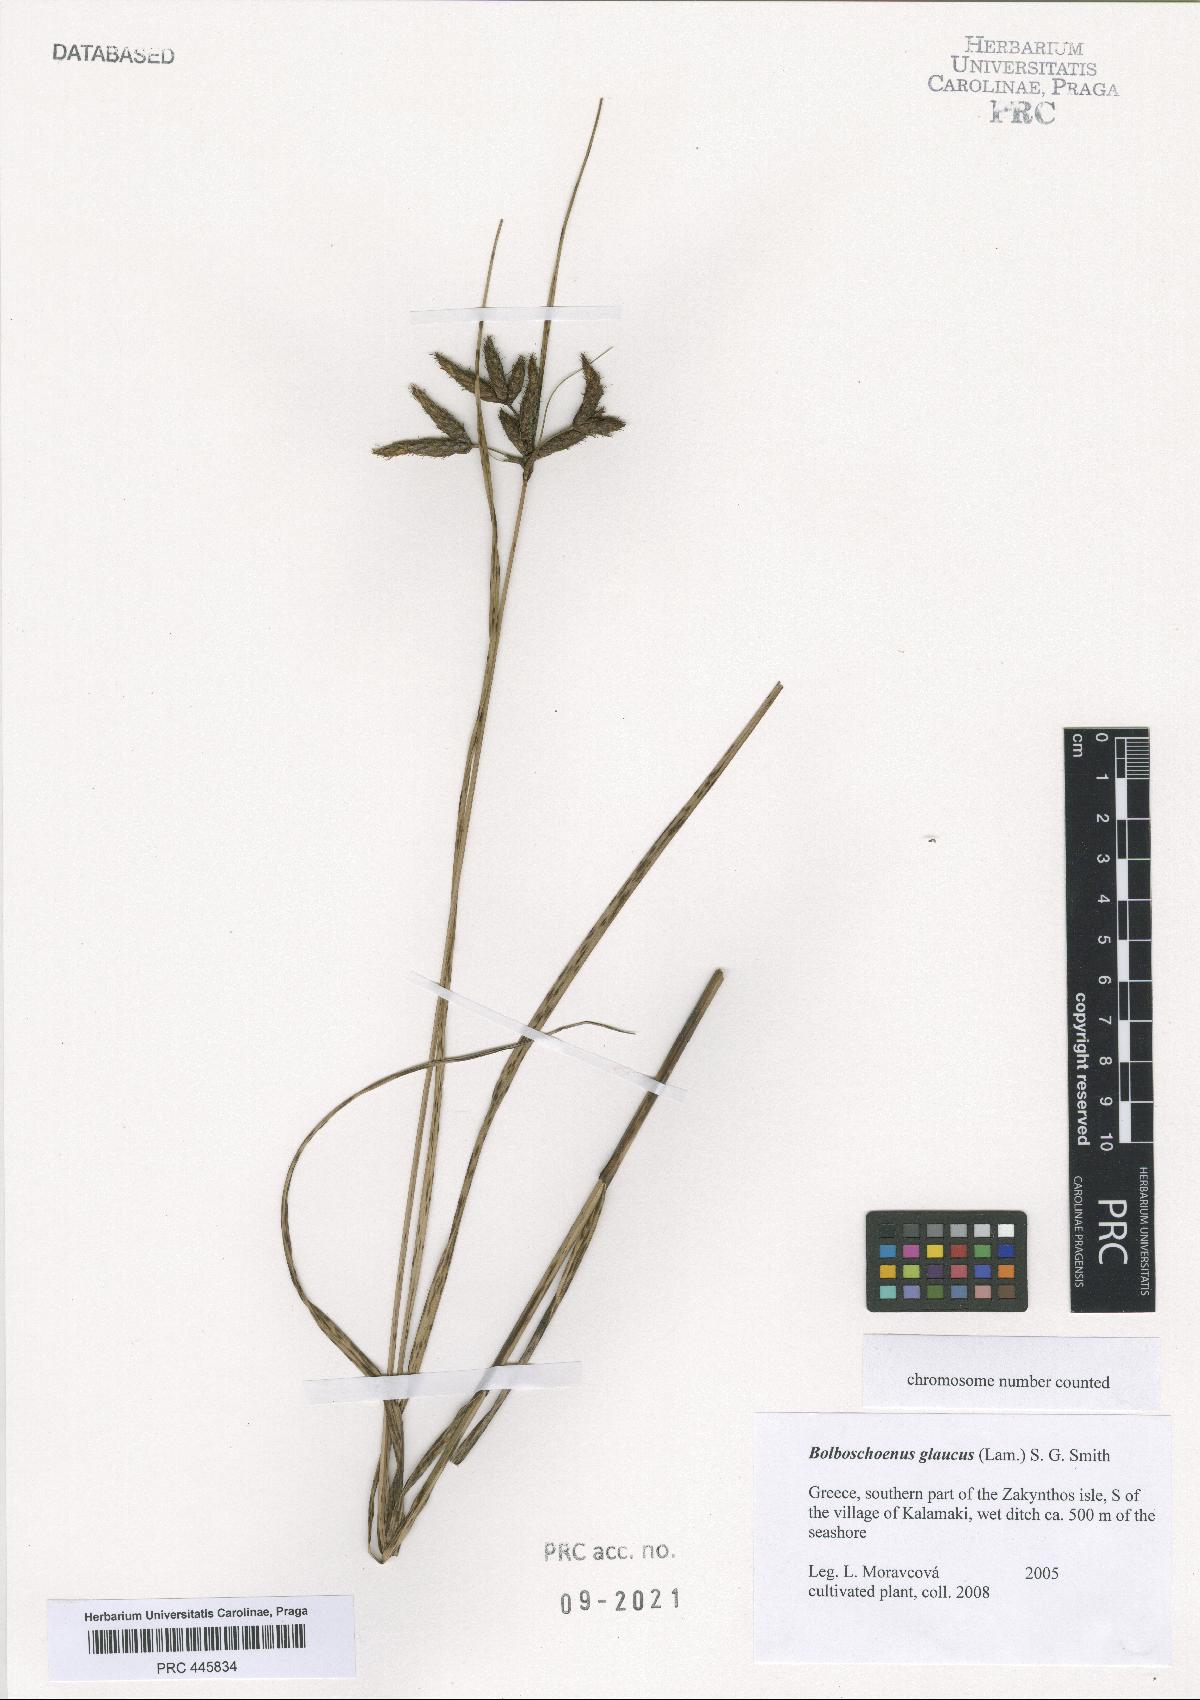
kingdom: Plantae
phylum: Tracheophyta
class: Liliopsida
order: Poales
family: Cyperaceae
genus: Bolboschoenus
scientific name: Bolboschoenus glaucus
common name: Tuberous bulrush
